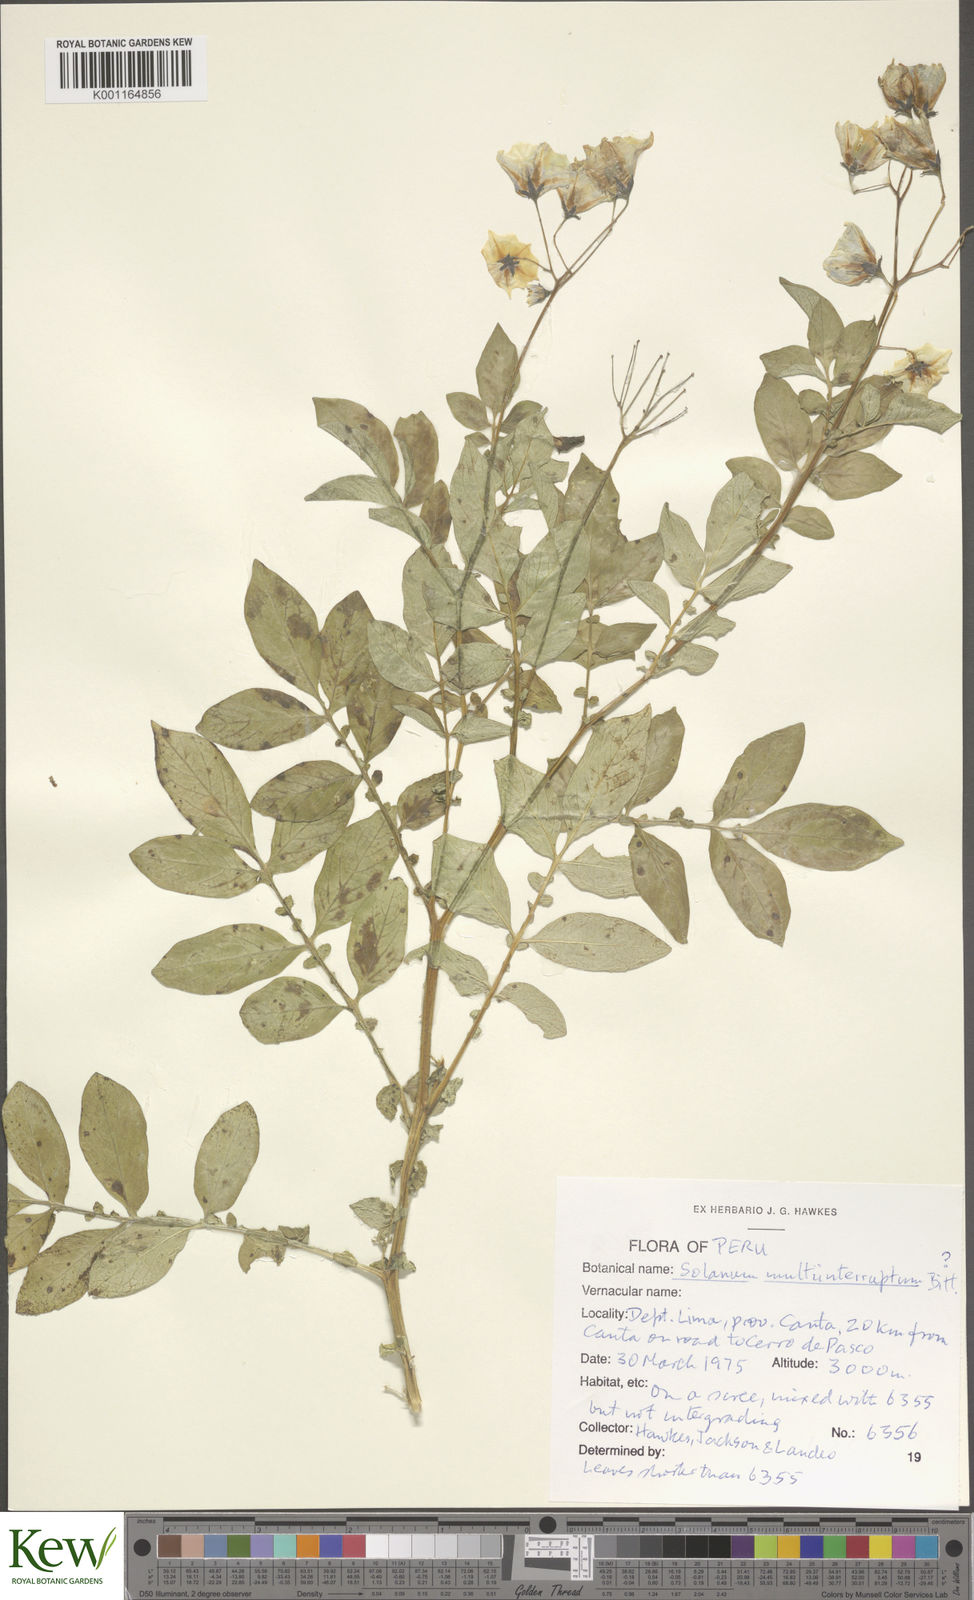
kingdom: Plantae
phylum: Tracheophyta
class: Magnoliopsida
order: Solanales
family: Solanaceae
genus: Solanum
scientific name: Solanum multiinterruptum
